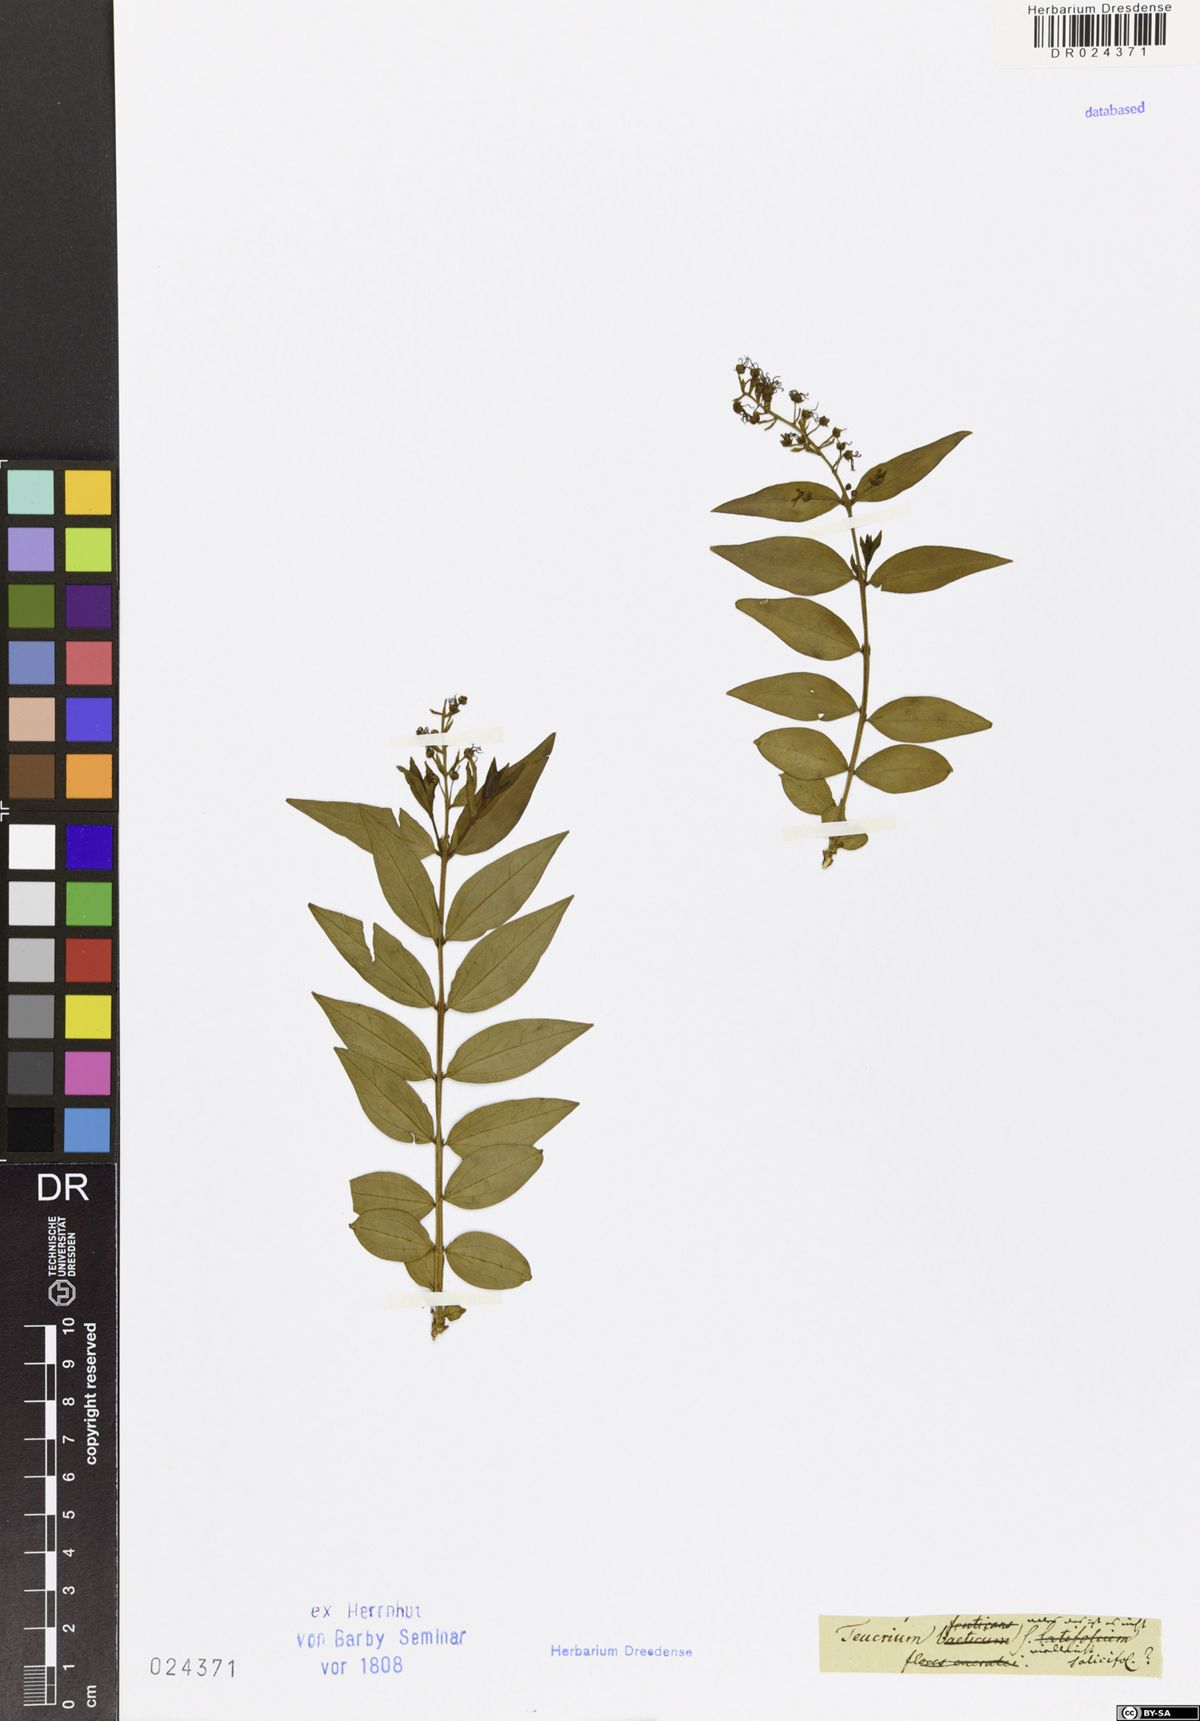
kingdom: Plantae
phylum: Tracheophyta
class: Magnoliopsida
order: Lamiales
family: Lamiaceae
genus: Ajuga
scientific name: Ajuga salicifolia
